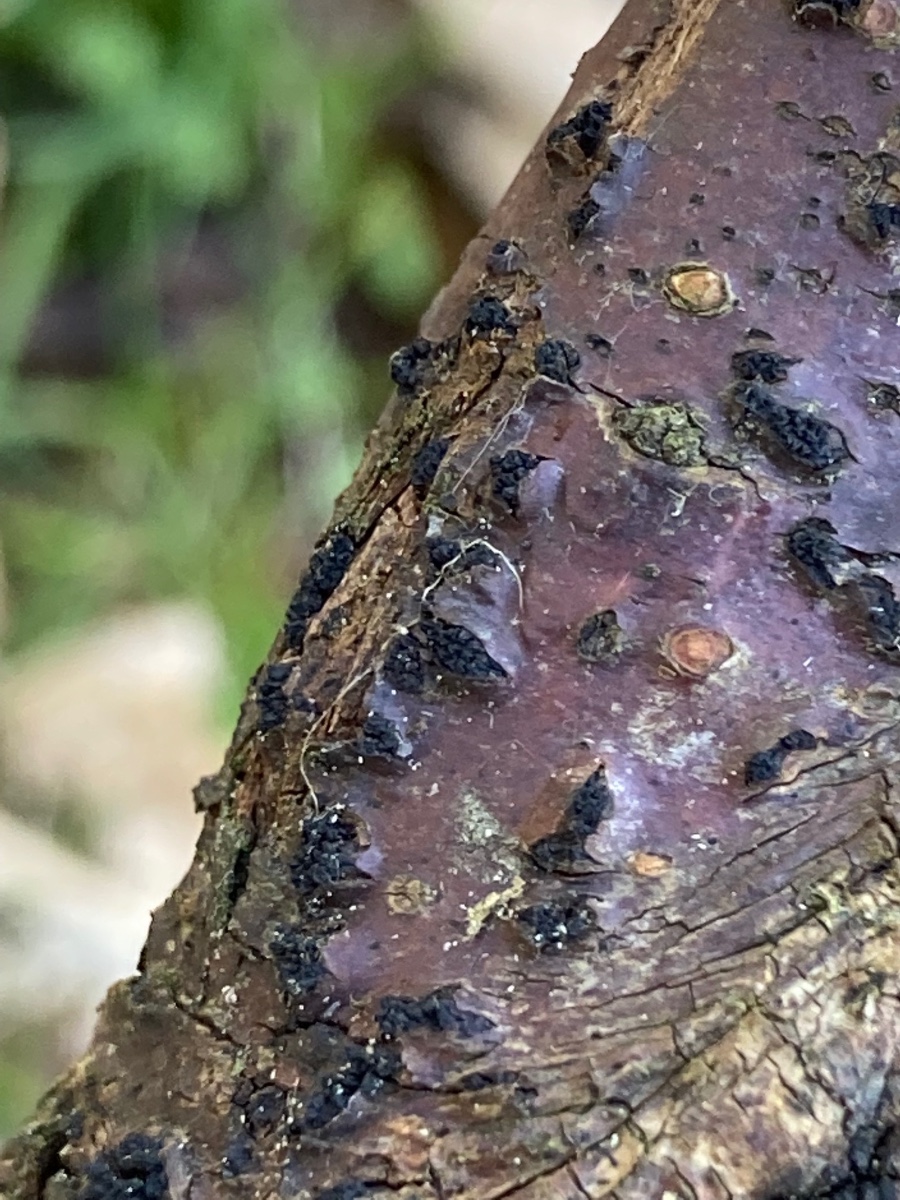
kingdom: Fungi
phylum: Ascomycota
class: Sordariomycetes
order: Xylariales
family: Diatrypaceae
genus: Eutypella
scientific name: Eutypella prunastri
